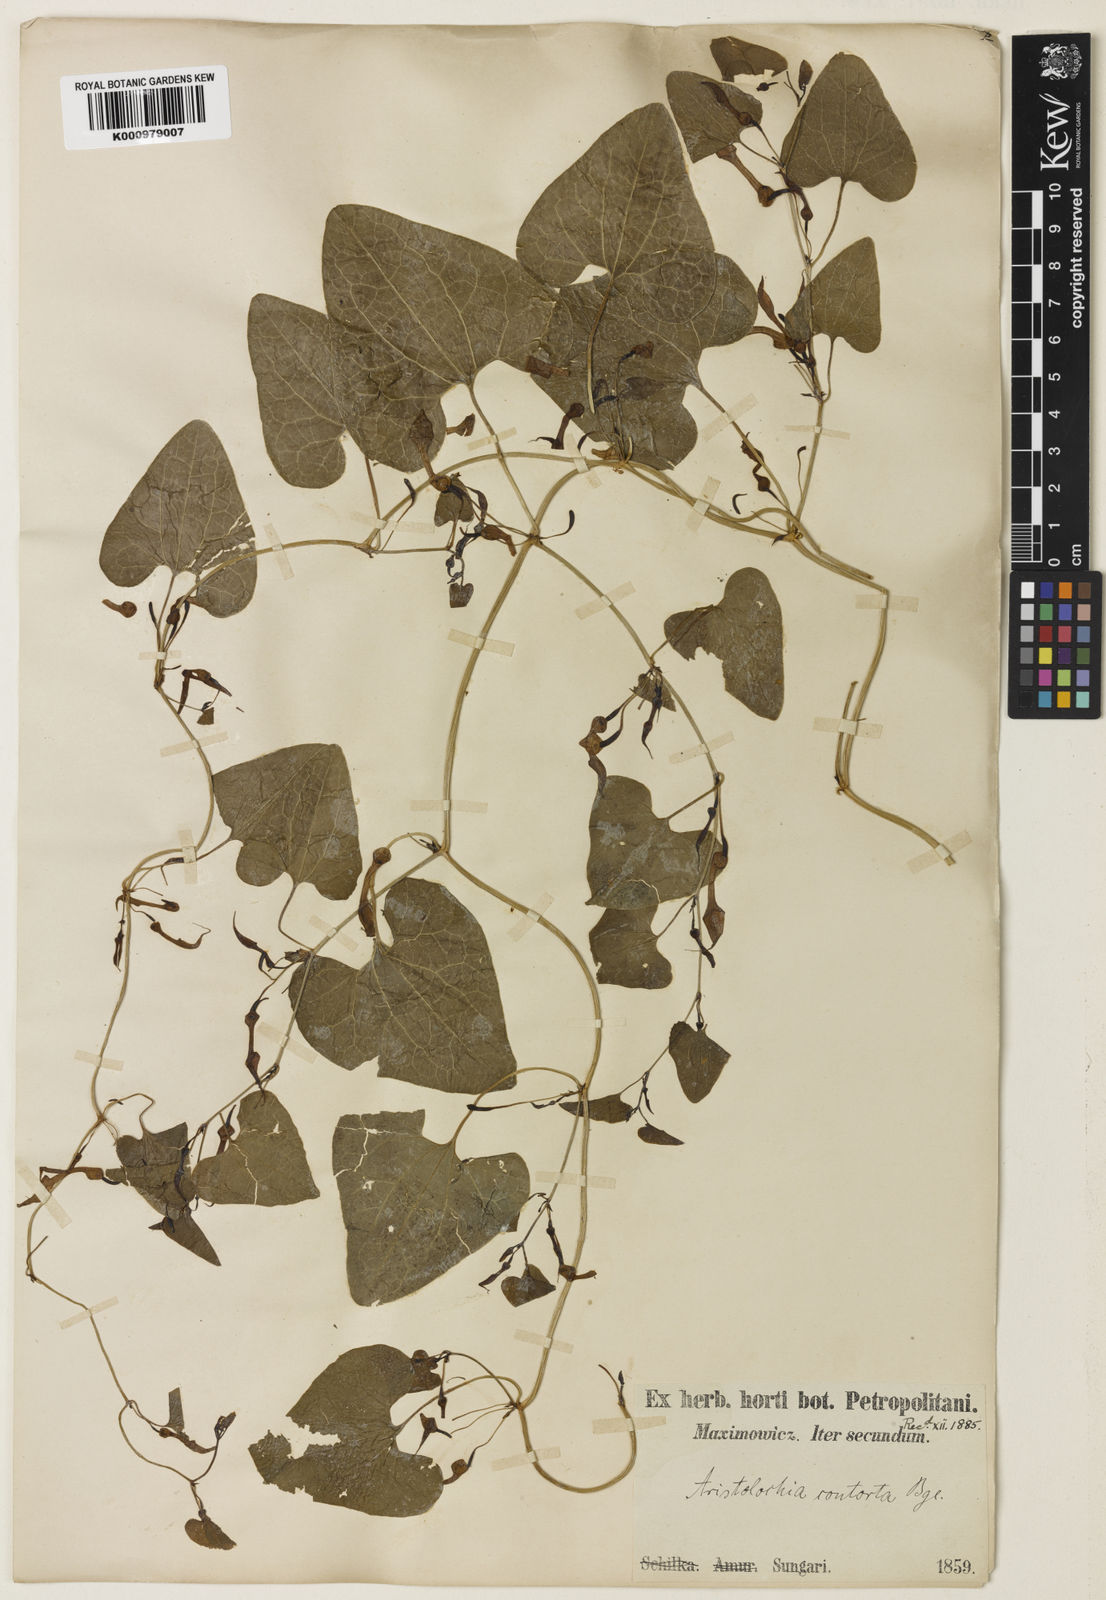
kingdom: Plantae
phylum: Tracheophyta
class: Magnoliopsida
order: Piperales
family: Aristolochiaceae
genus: Aristolochia
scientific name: Aristolochia contorta
